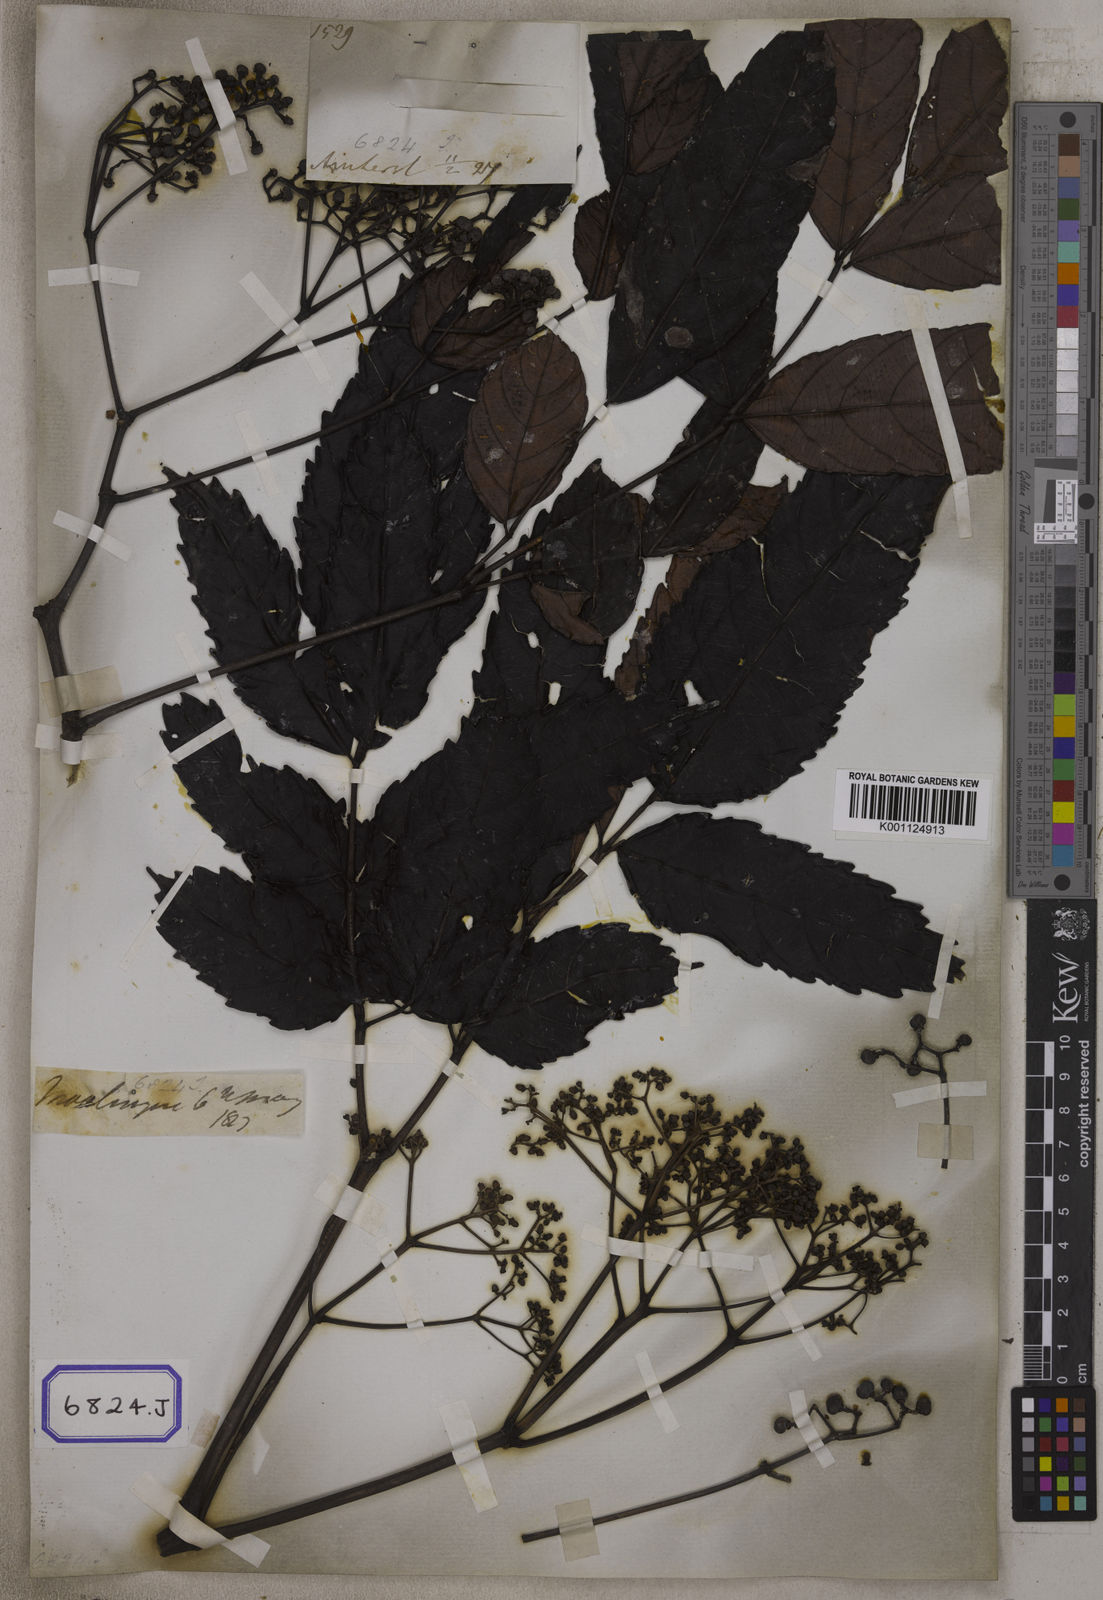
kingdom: Plantae
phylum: Tracheophyta
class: Magnoliopsida
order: Vitales
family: Vitaceae
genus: Leea
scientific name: Leea
